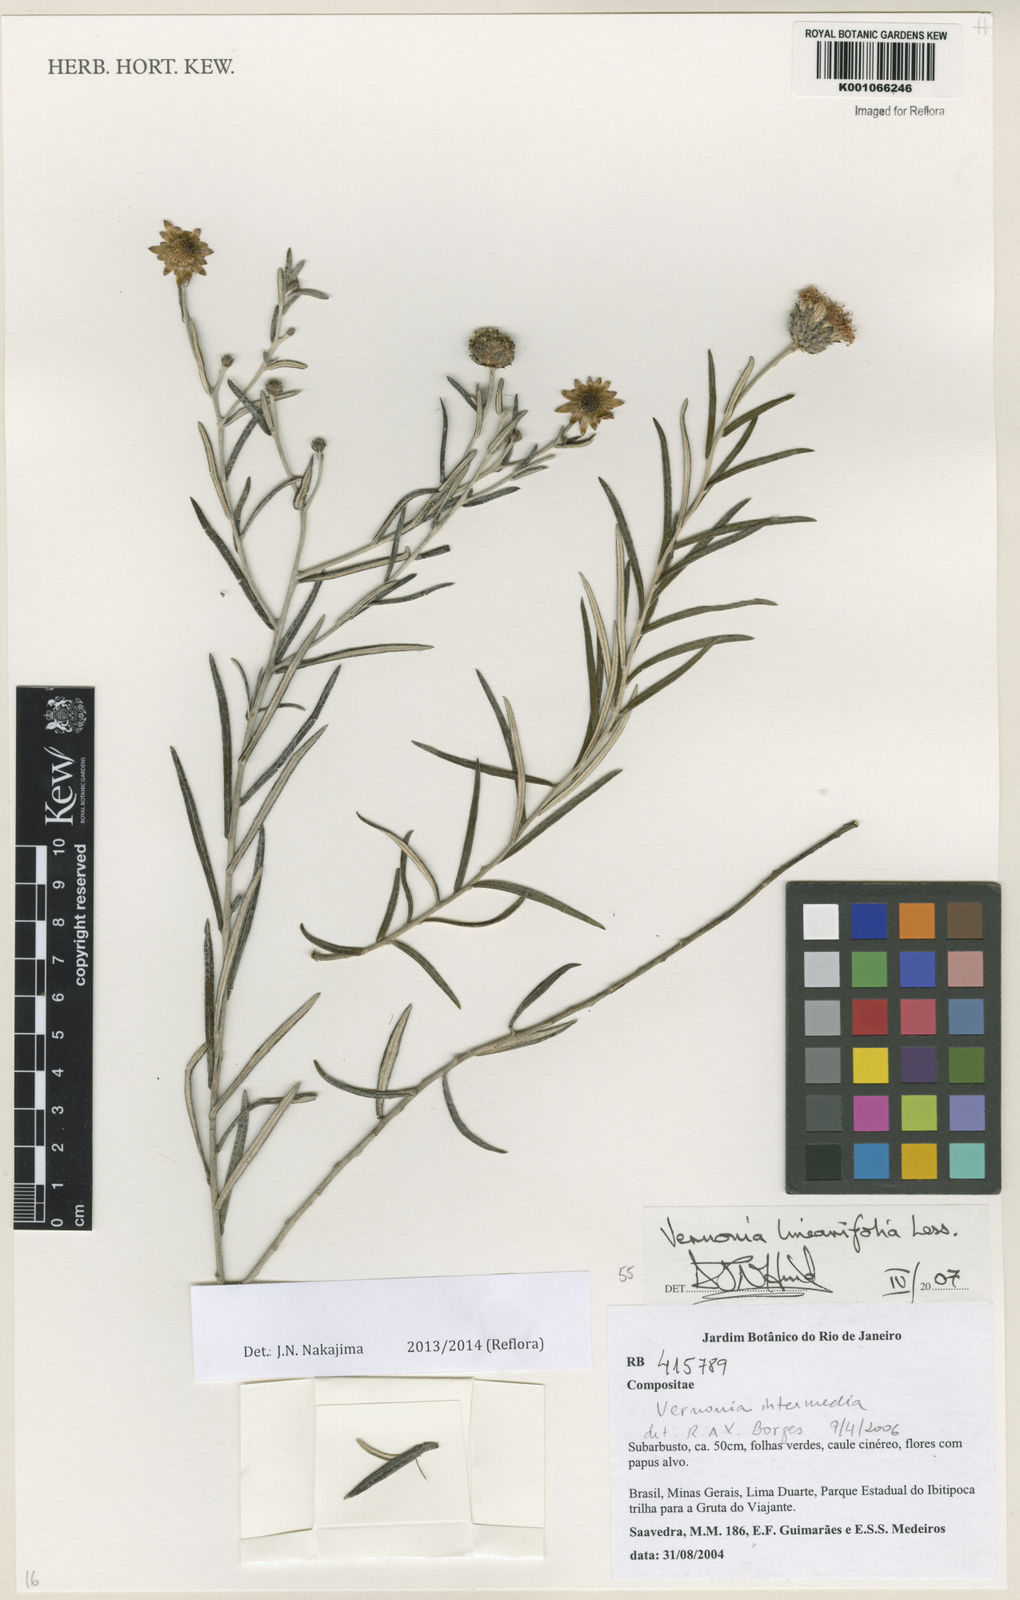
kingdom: Plantae
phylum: Tracheophyta
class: Magnoliopsida
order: Asterales
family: Asteraceae
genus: Lessingianthus
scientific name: Lessingianthus linearifolius
